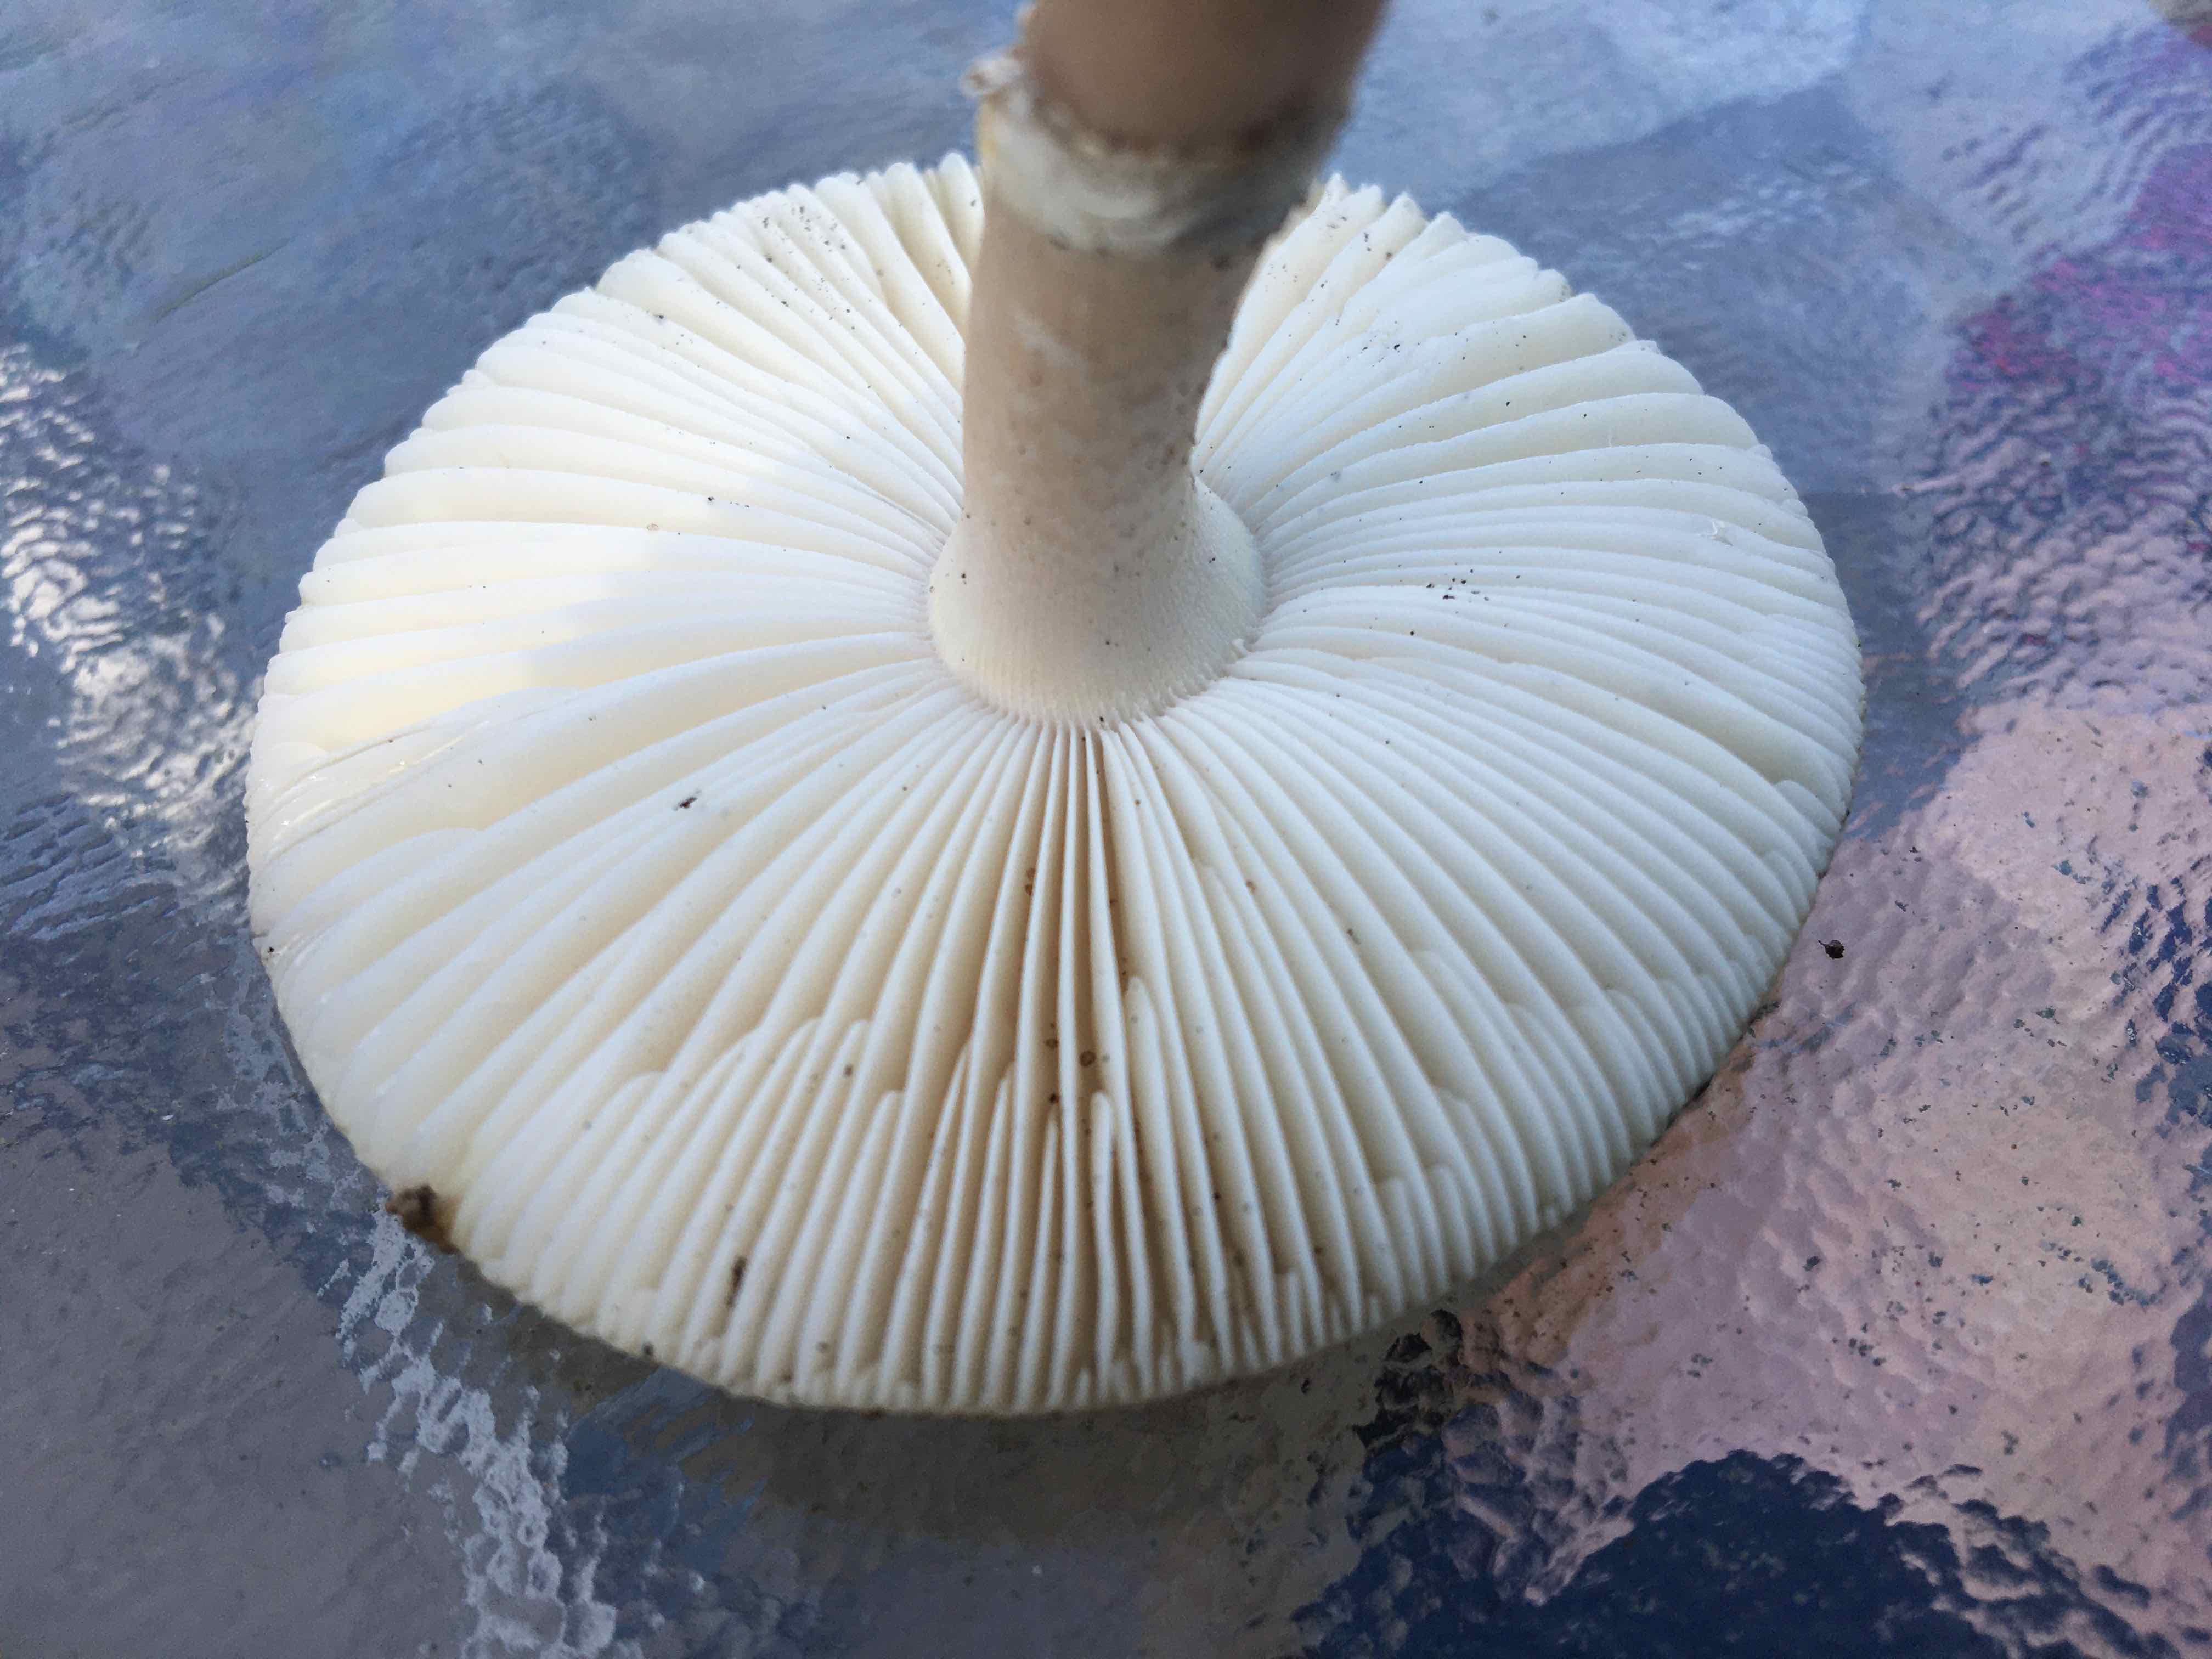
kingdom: Fungi
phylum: Basidiomycota
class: Agaricomycetes
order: Agaricales
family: Amanitaceae
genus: Amanita
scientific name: Amanita rubescens
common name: rødmende fluesvamp
